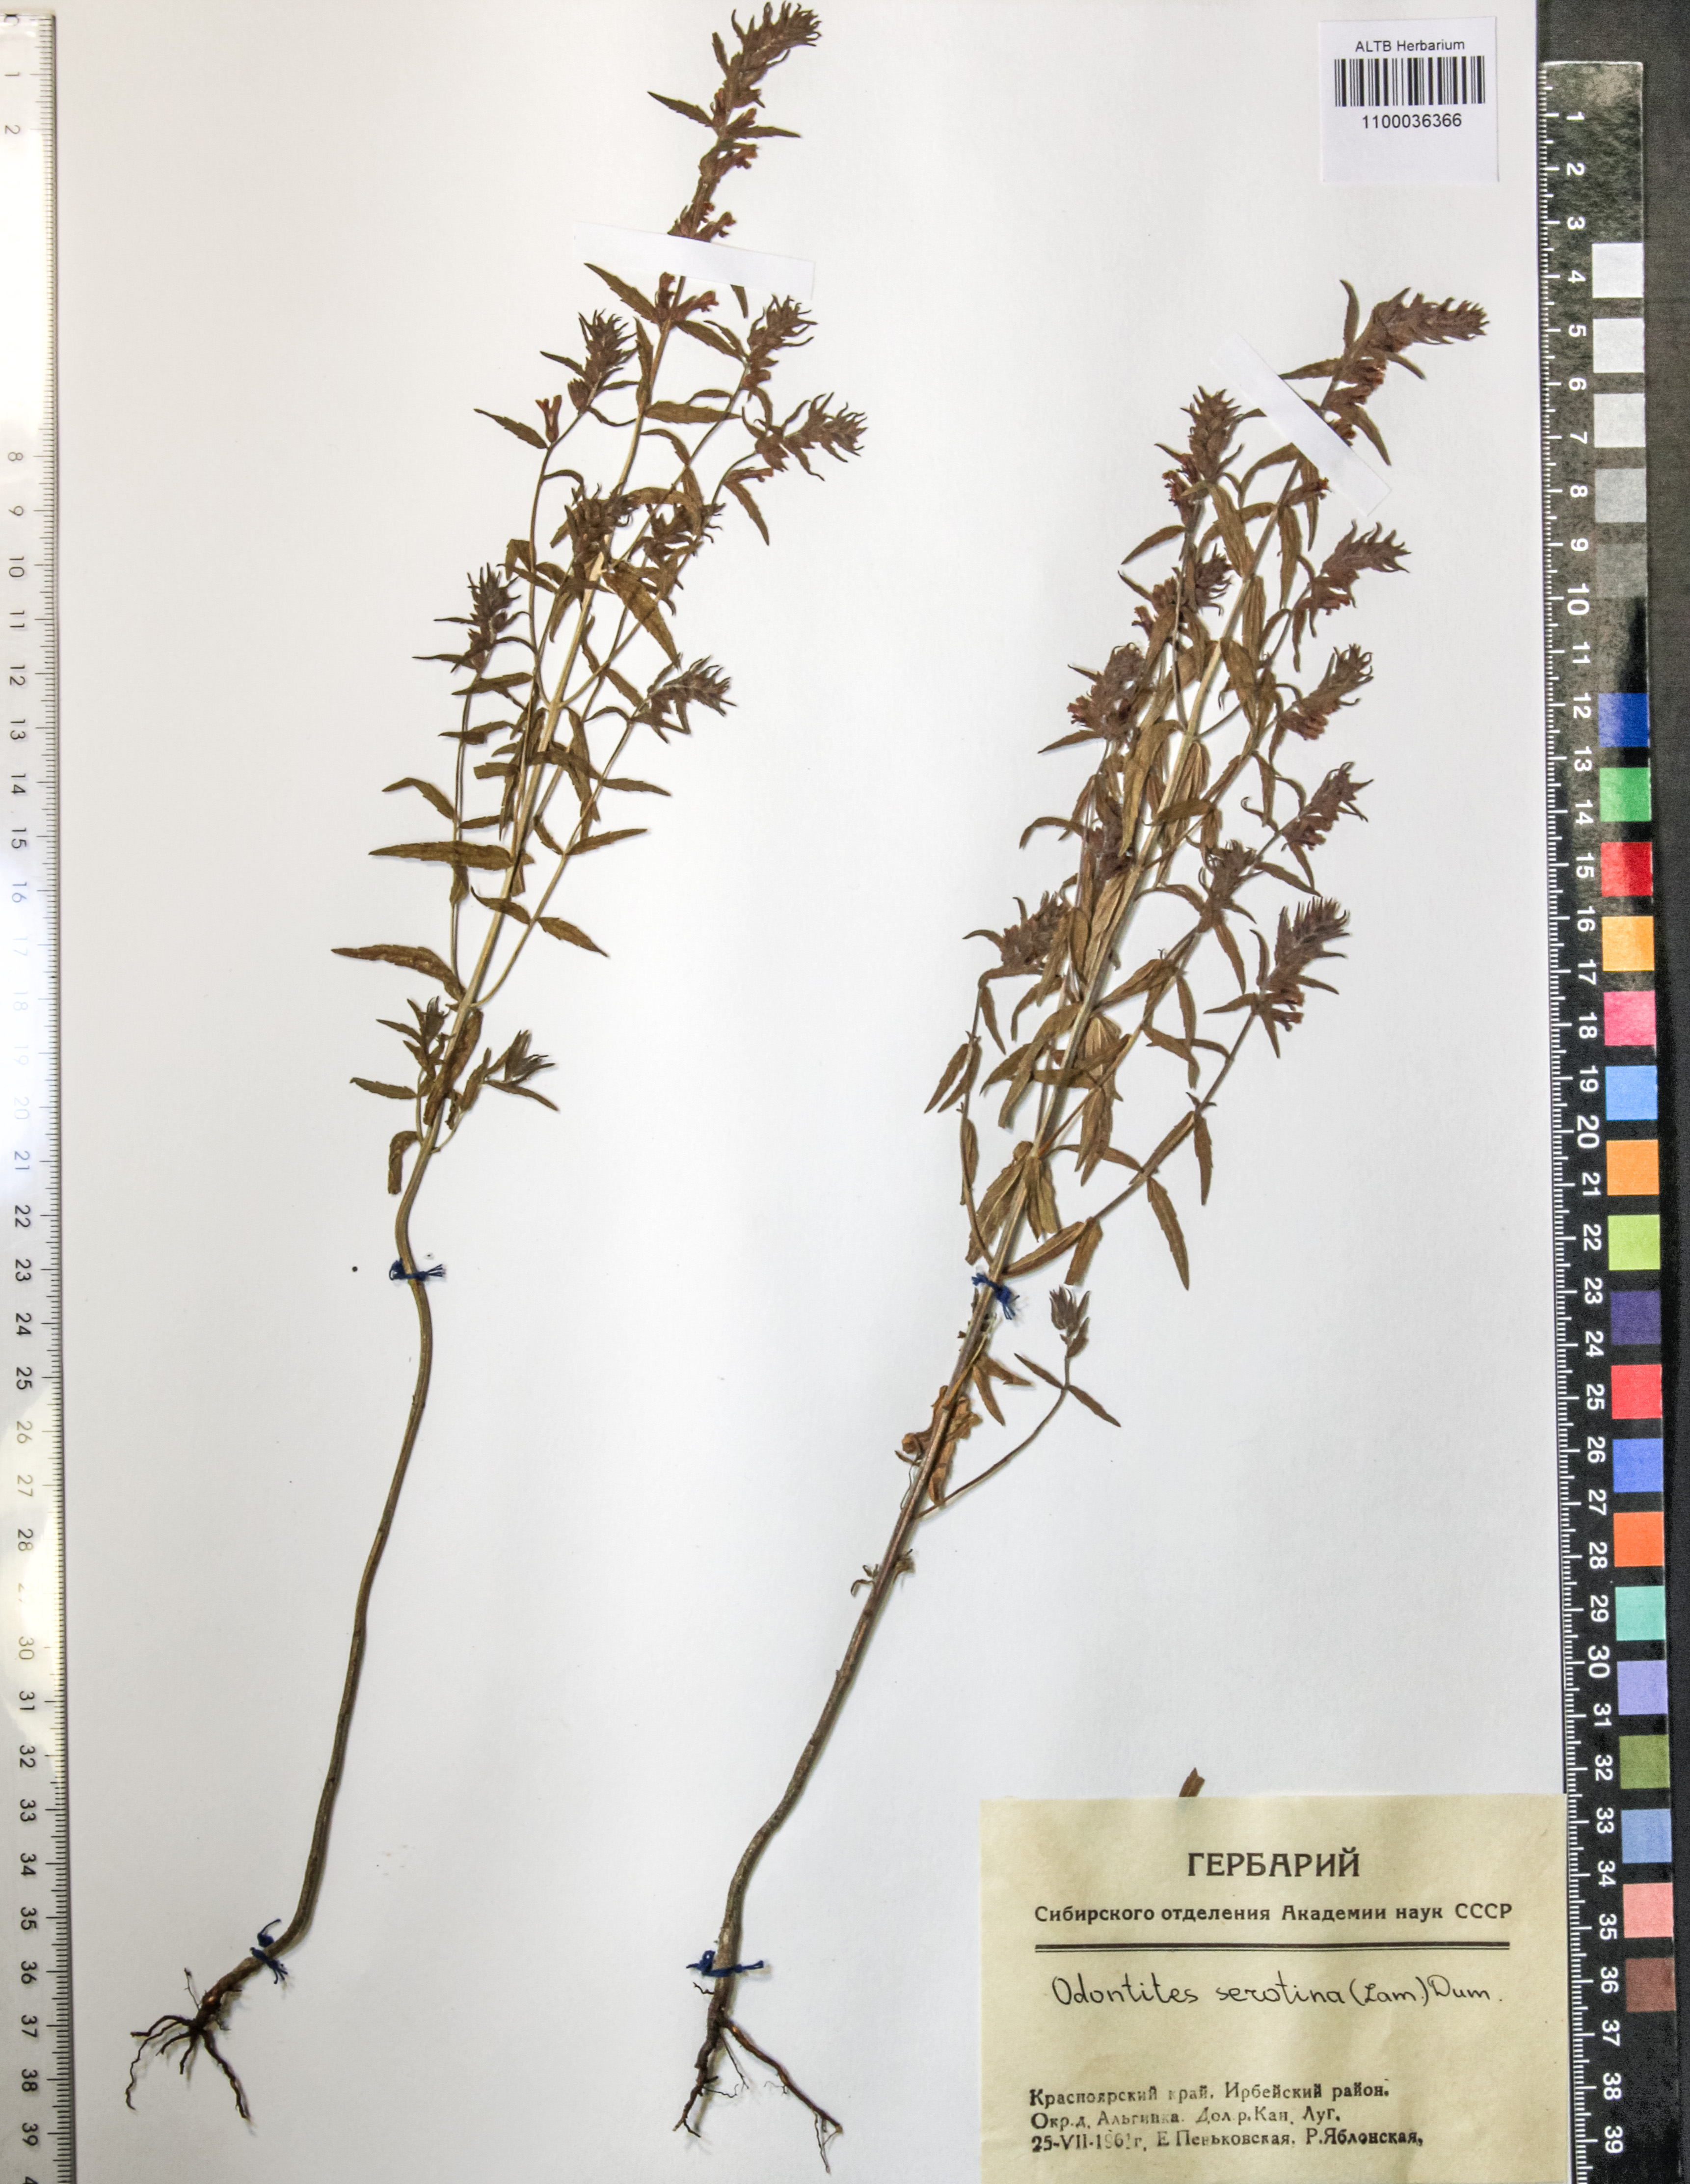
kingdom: Plantae
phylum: Tracheophyta
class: Magnoliopsida
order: Lamiales
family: Orobanchaceae
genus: Odontites
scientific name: Odontites vulgaris
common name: Broomrape
